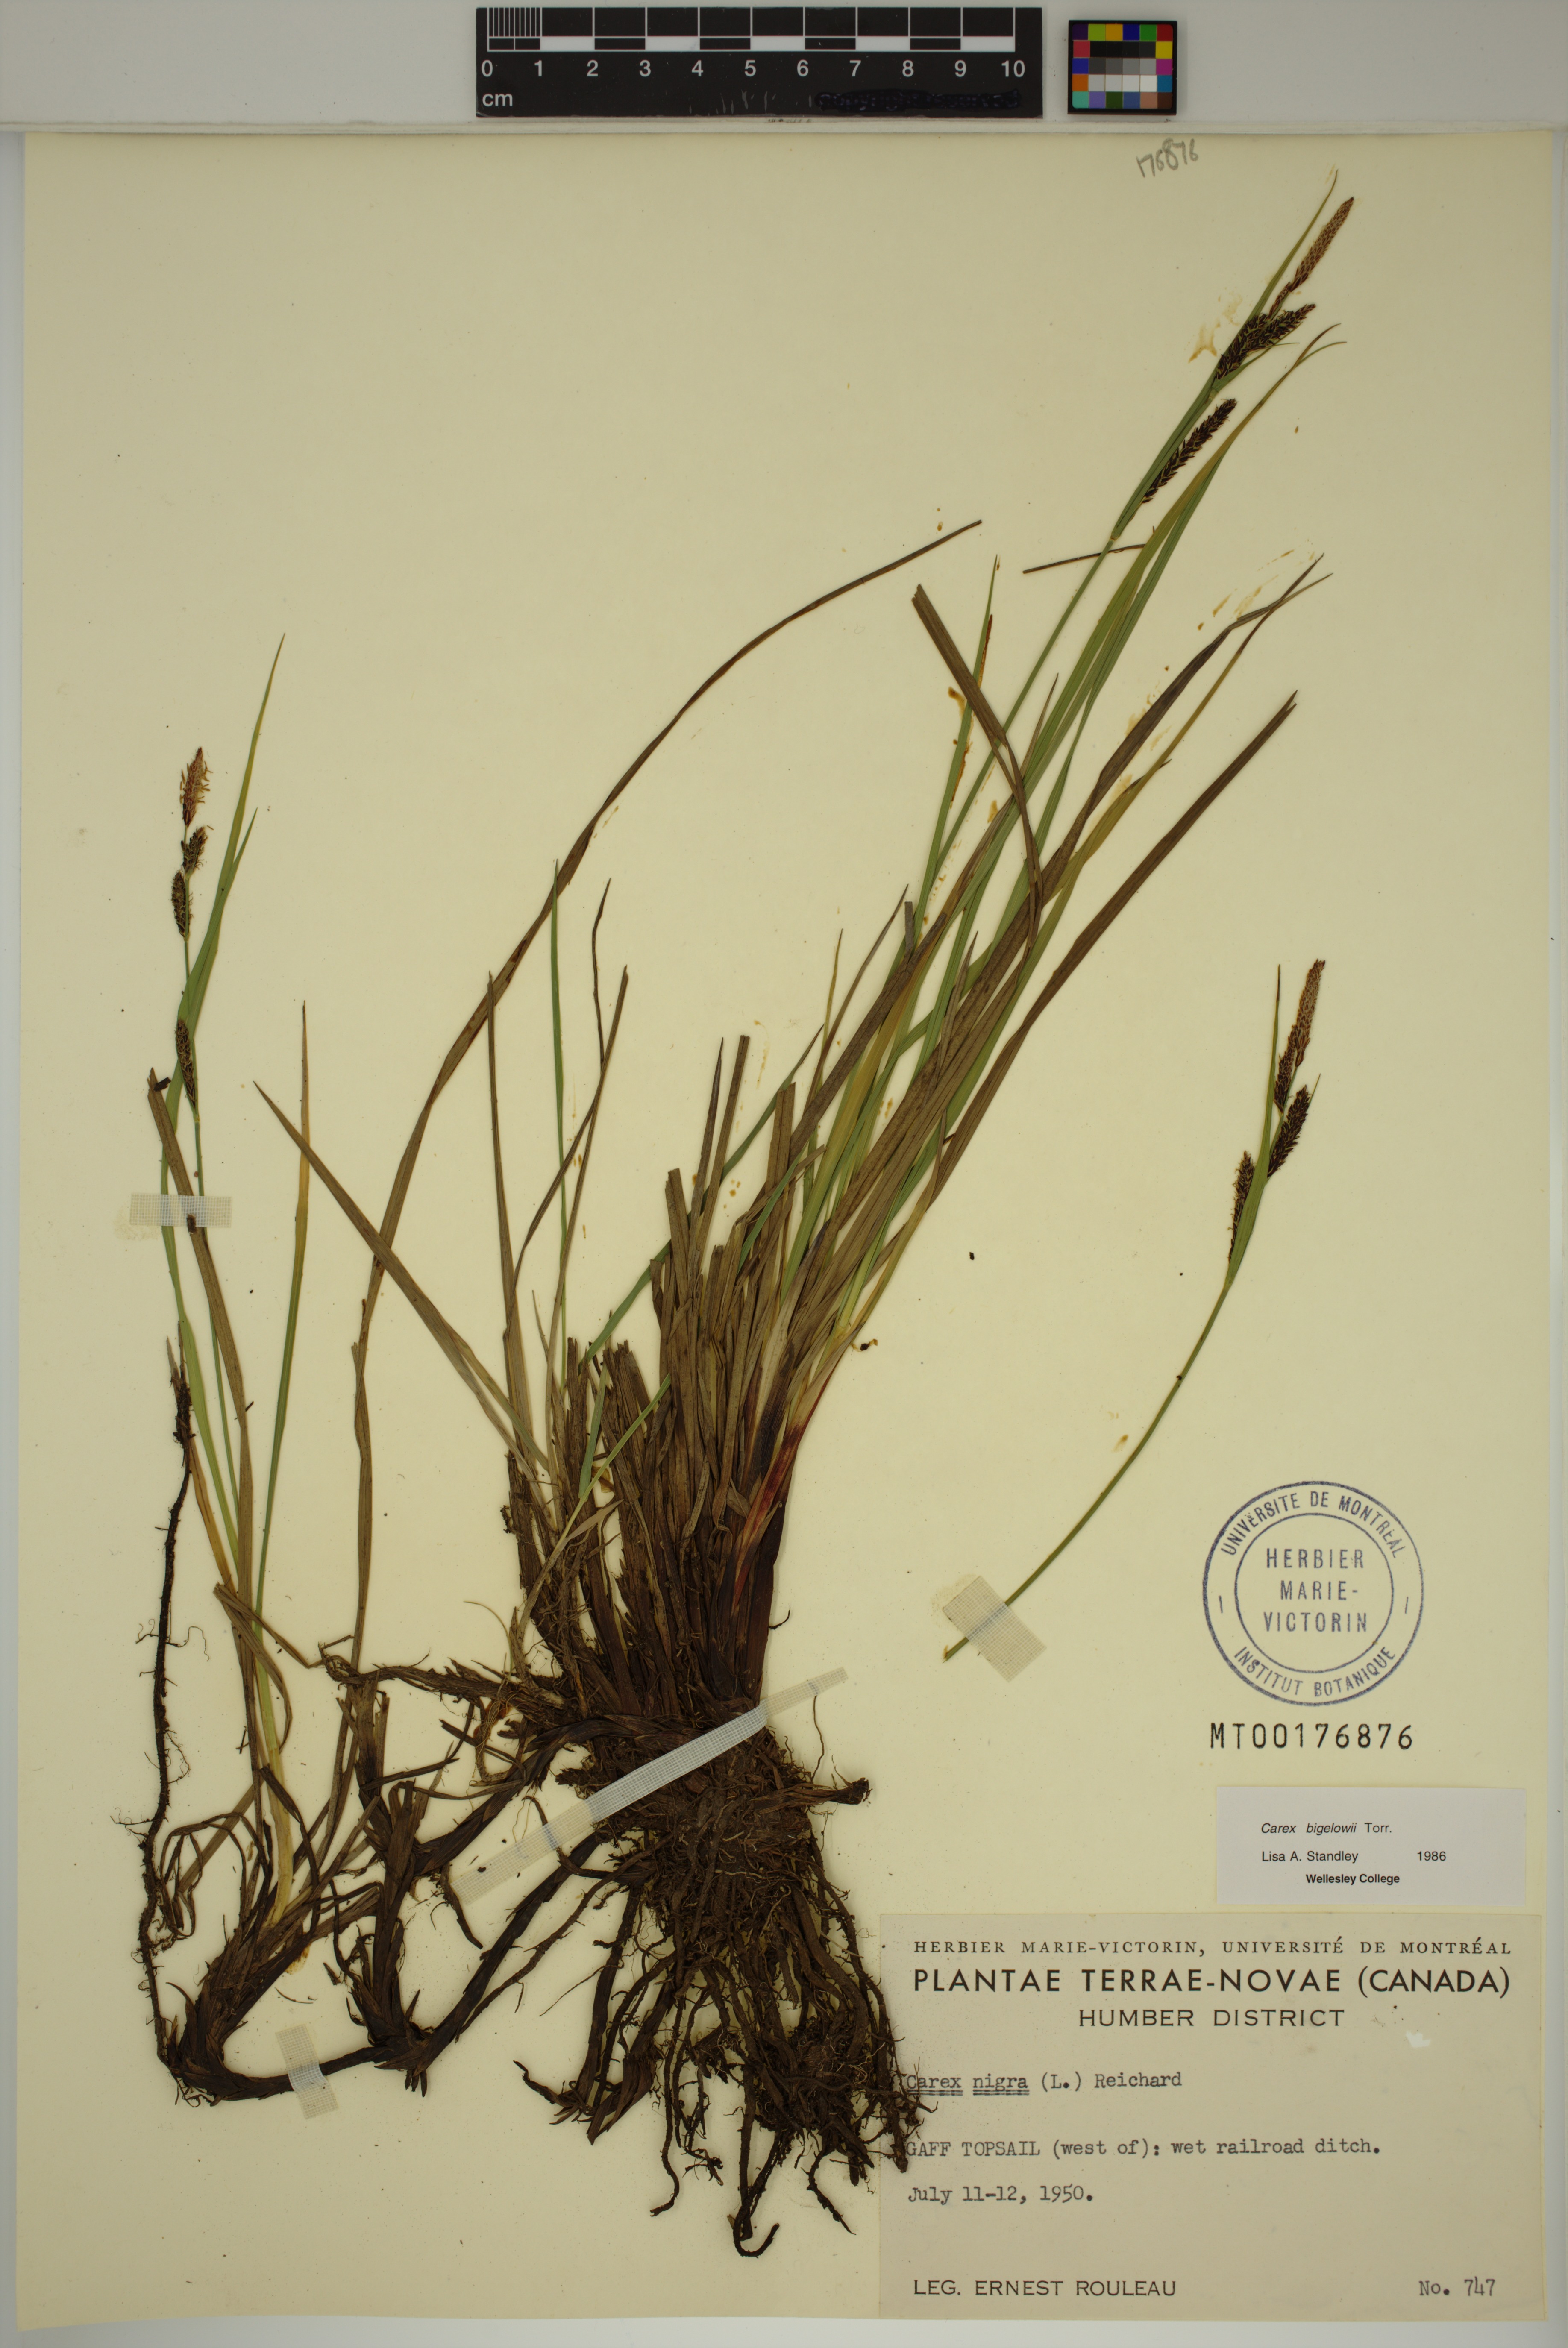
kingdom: Plantae
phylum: Tracheophyta
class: Liliopsida
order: Poales
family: Cyperaceae
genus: Carex
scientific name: Carex bigelowii
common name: Stiff sedge
